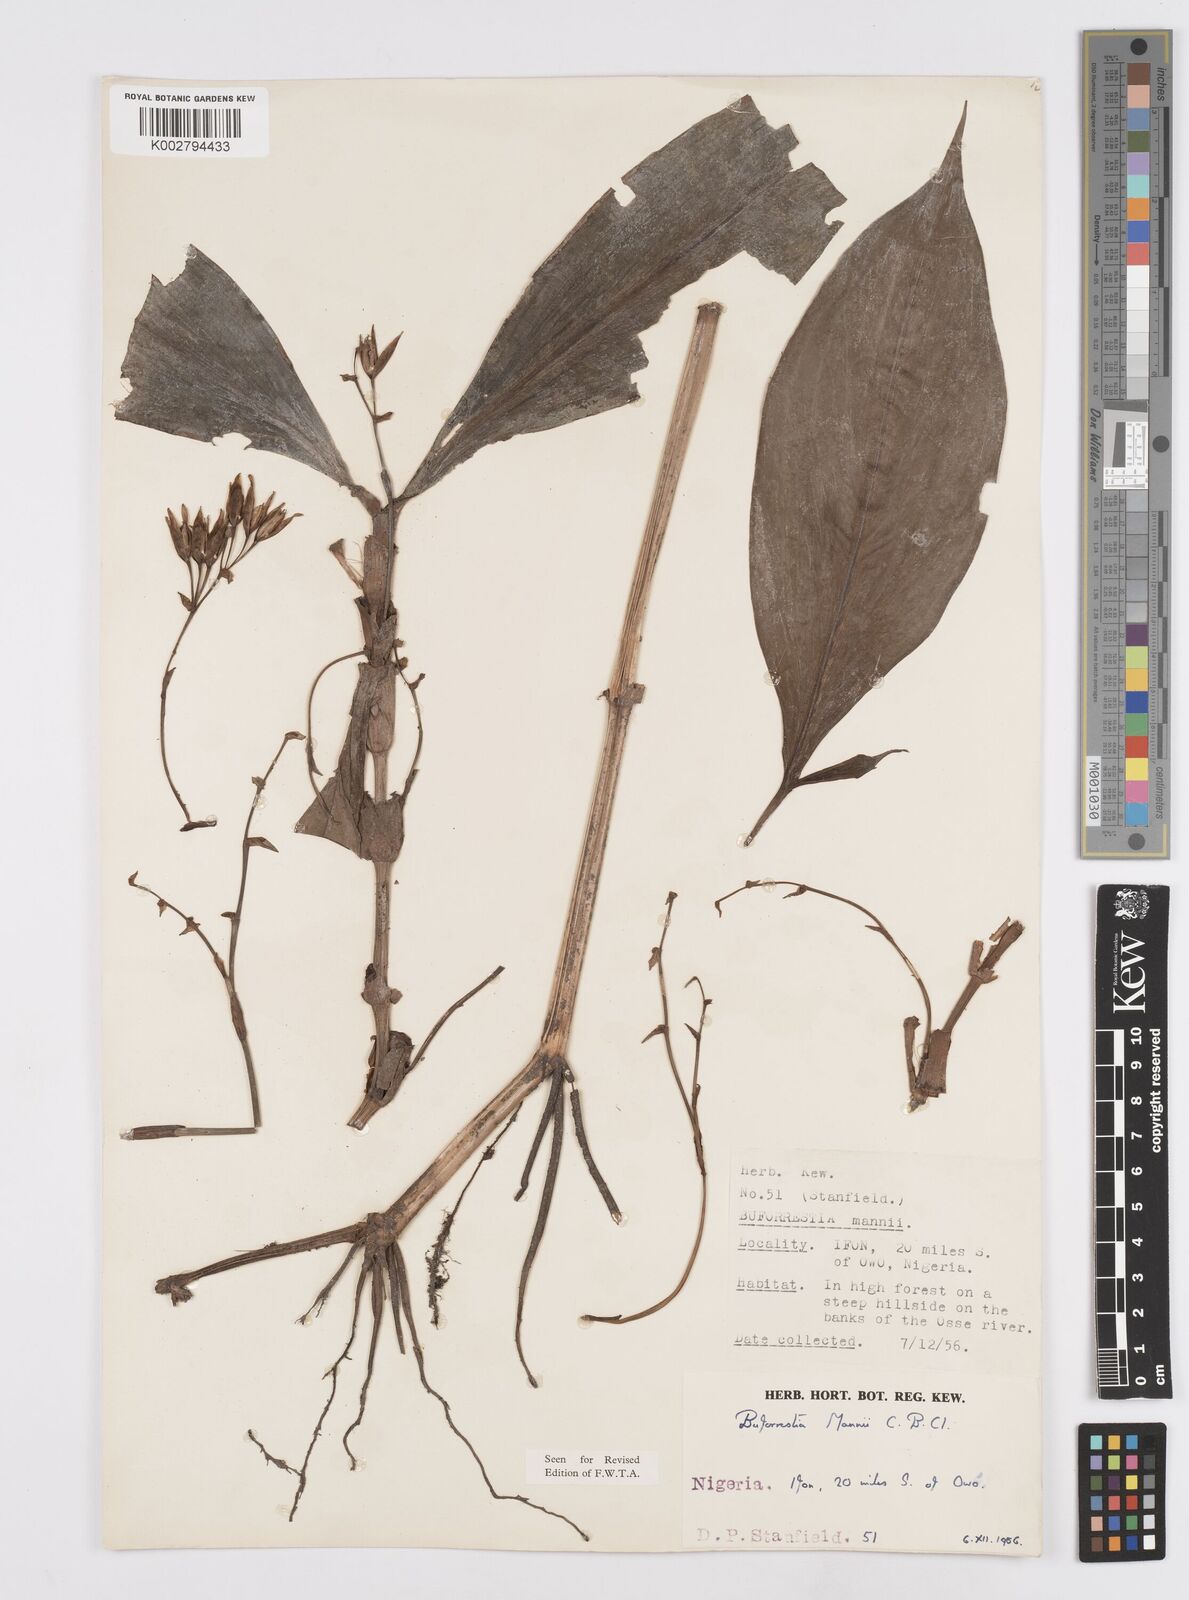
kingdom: Plantae
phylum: Tracheophyta
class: Liliopsida
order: Commelinales
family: Commelinaceae
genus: Buforrestia
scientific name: Buforrestia mannii
